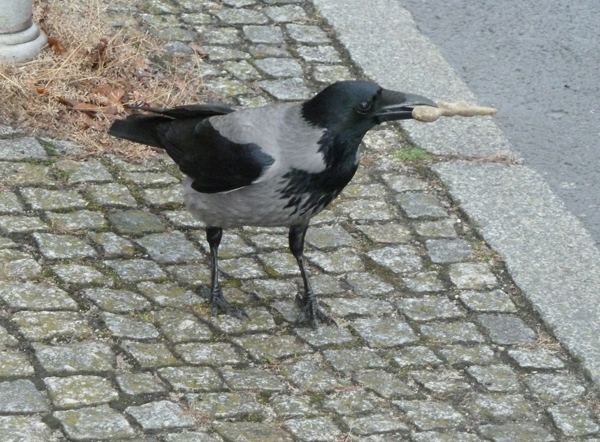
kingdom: Animalia
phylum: Chordata
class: Aves
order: Passeriformes
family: Corvidae
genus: Corvus
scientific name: Corvus cornix
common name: Hooded crow
